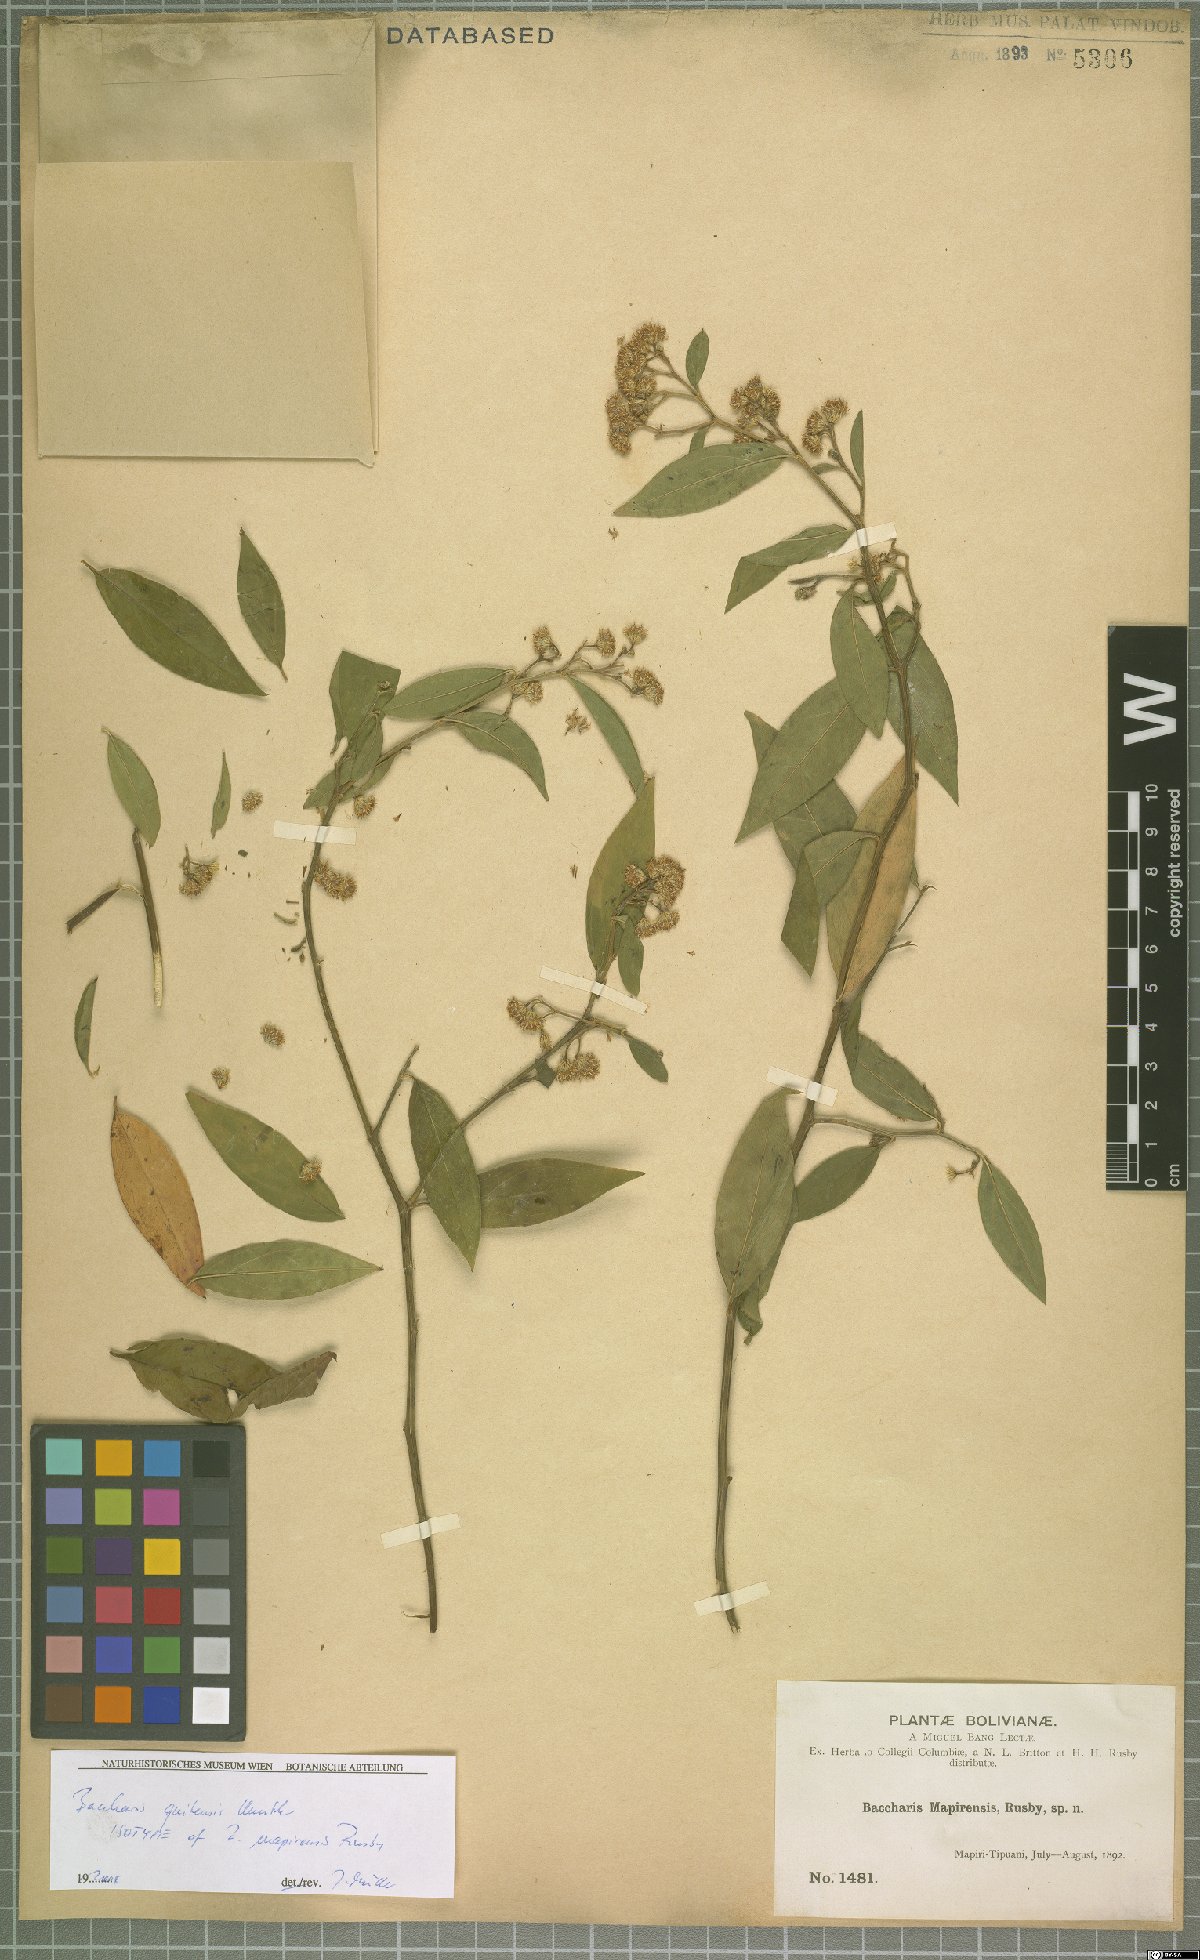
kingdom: Plantae
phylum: Tracheophyta
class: Magnoliopsida
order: Asterales
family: Asteraceae
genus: Baccharis
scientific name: Baccharis quitensis
